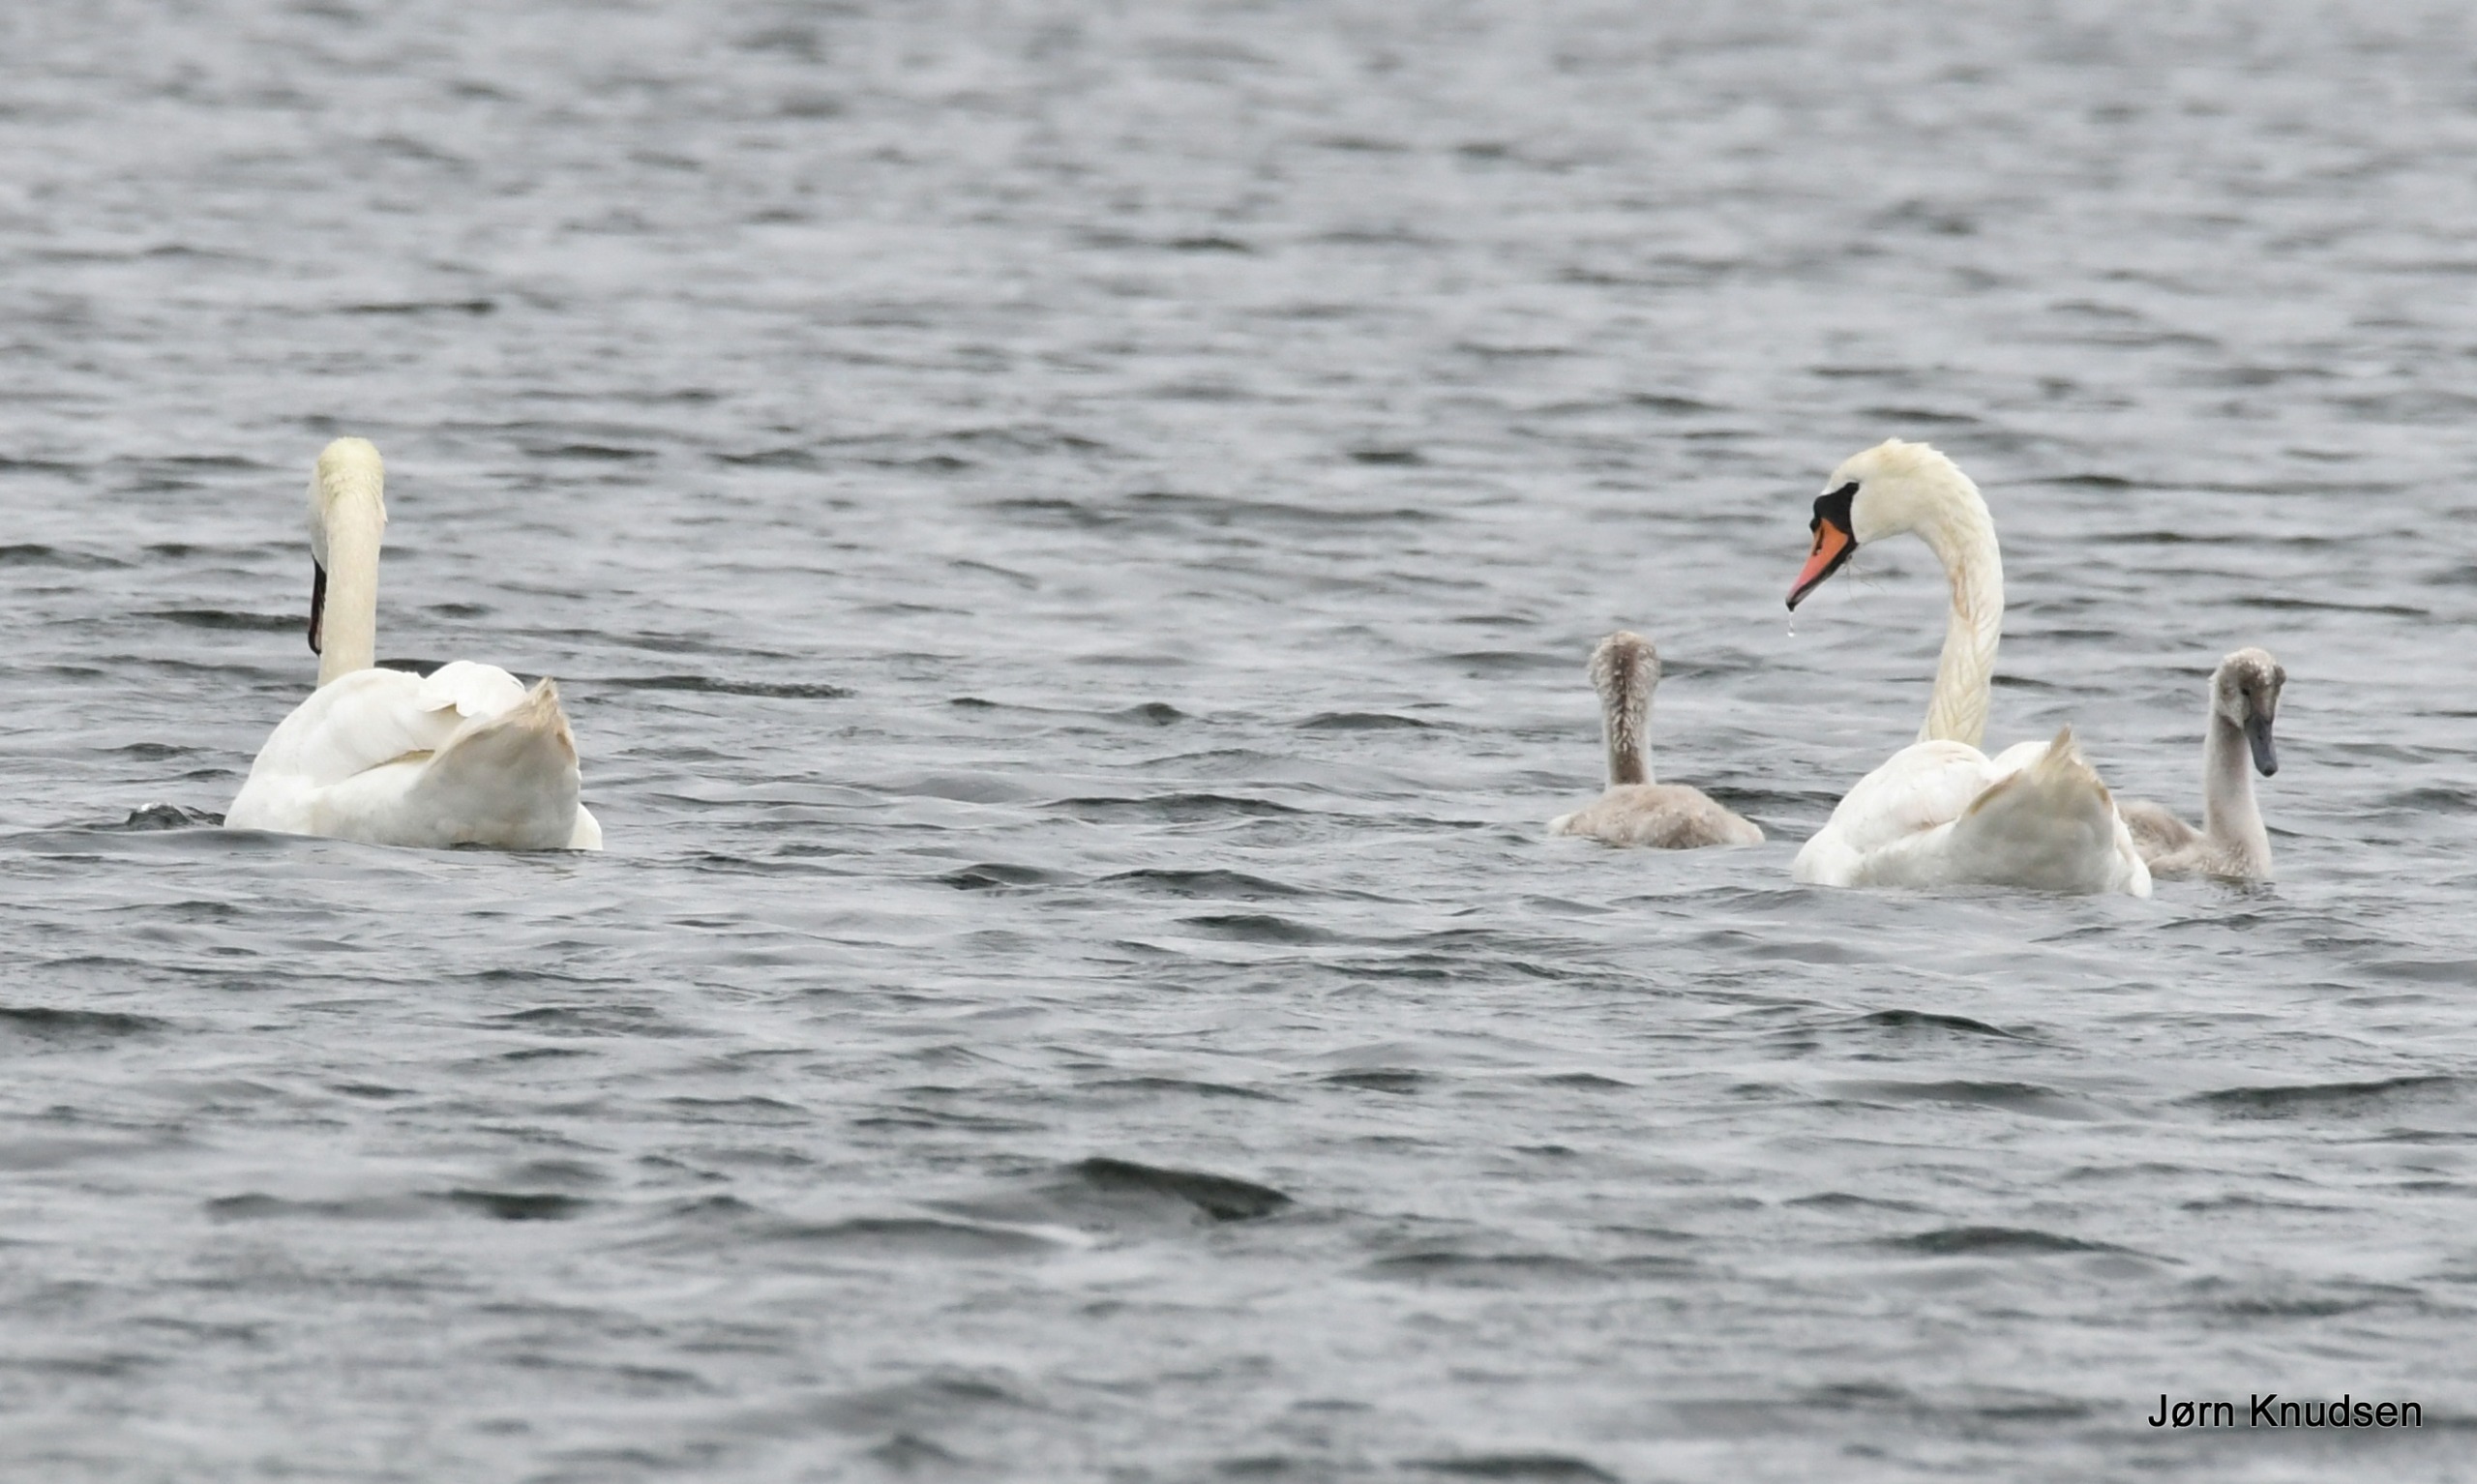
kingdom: Animalia
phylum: Chordata
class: Aves
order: Anseriformes
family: Anatidae
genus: Cygnus
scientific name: Cygnus olor
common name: Knopsvane
